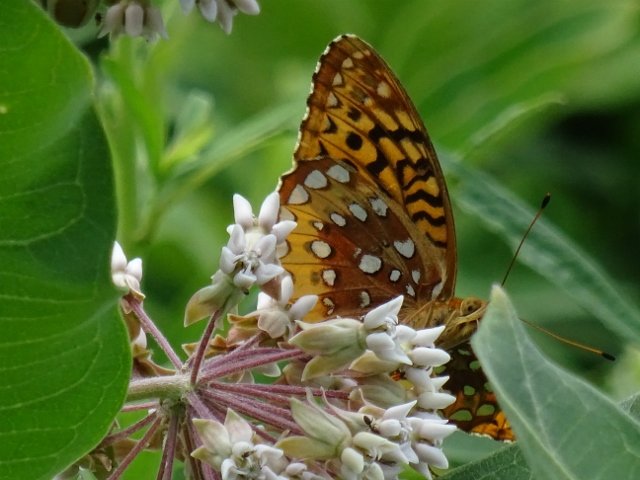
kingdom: Animalia
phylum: Arthropoda
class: Insecta
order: Lepidoptera
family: Nymphalidae
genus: Speyeria
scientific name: Speyeria cybele
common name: Great Spangled Fritillary
